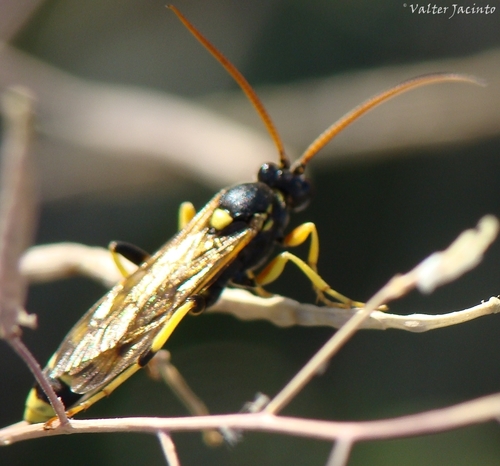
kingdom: Animalia
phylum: Arthropoda
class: Insecta
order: Hymenoptera
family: Ichneumonidae
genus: Ichneumon
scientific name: Ichneumon sarcitorius
